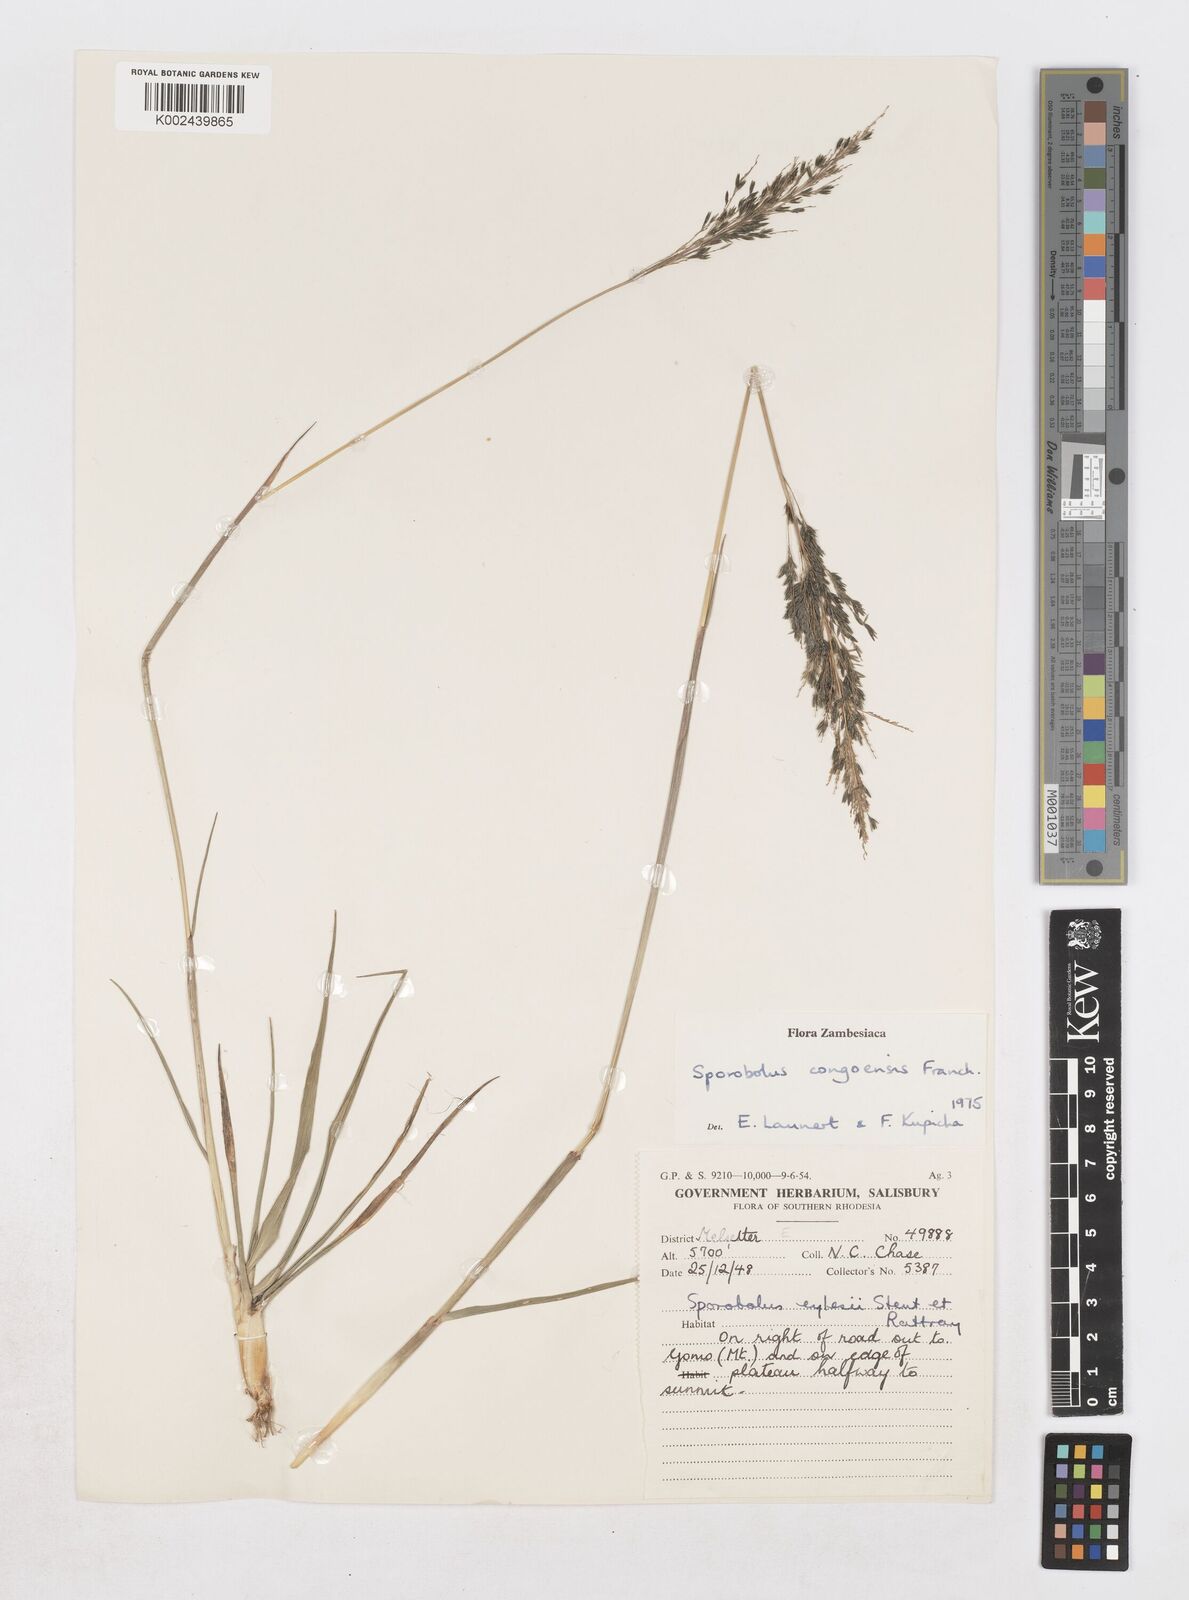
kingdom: Plantae
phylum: Tracheophyta
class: Liliopsida
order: Poales
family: Poaceae
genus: Sporobolus
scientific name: Sporobolus congoensis
